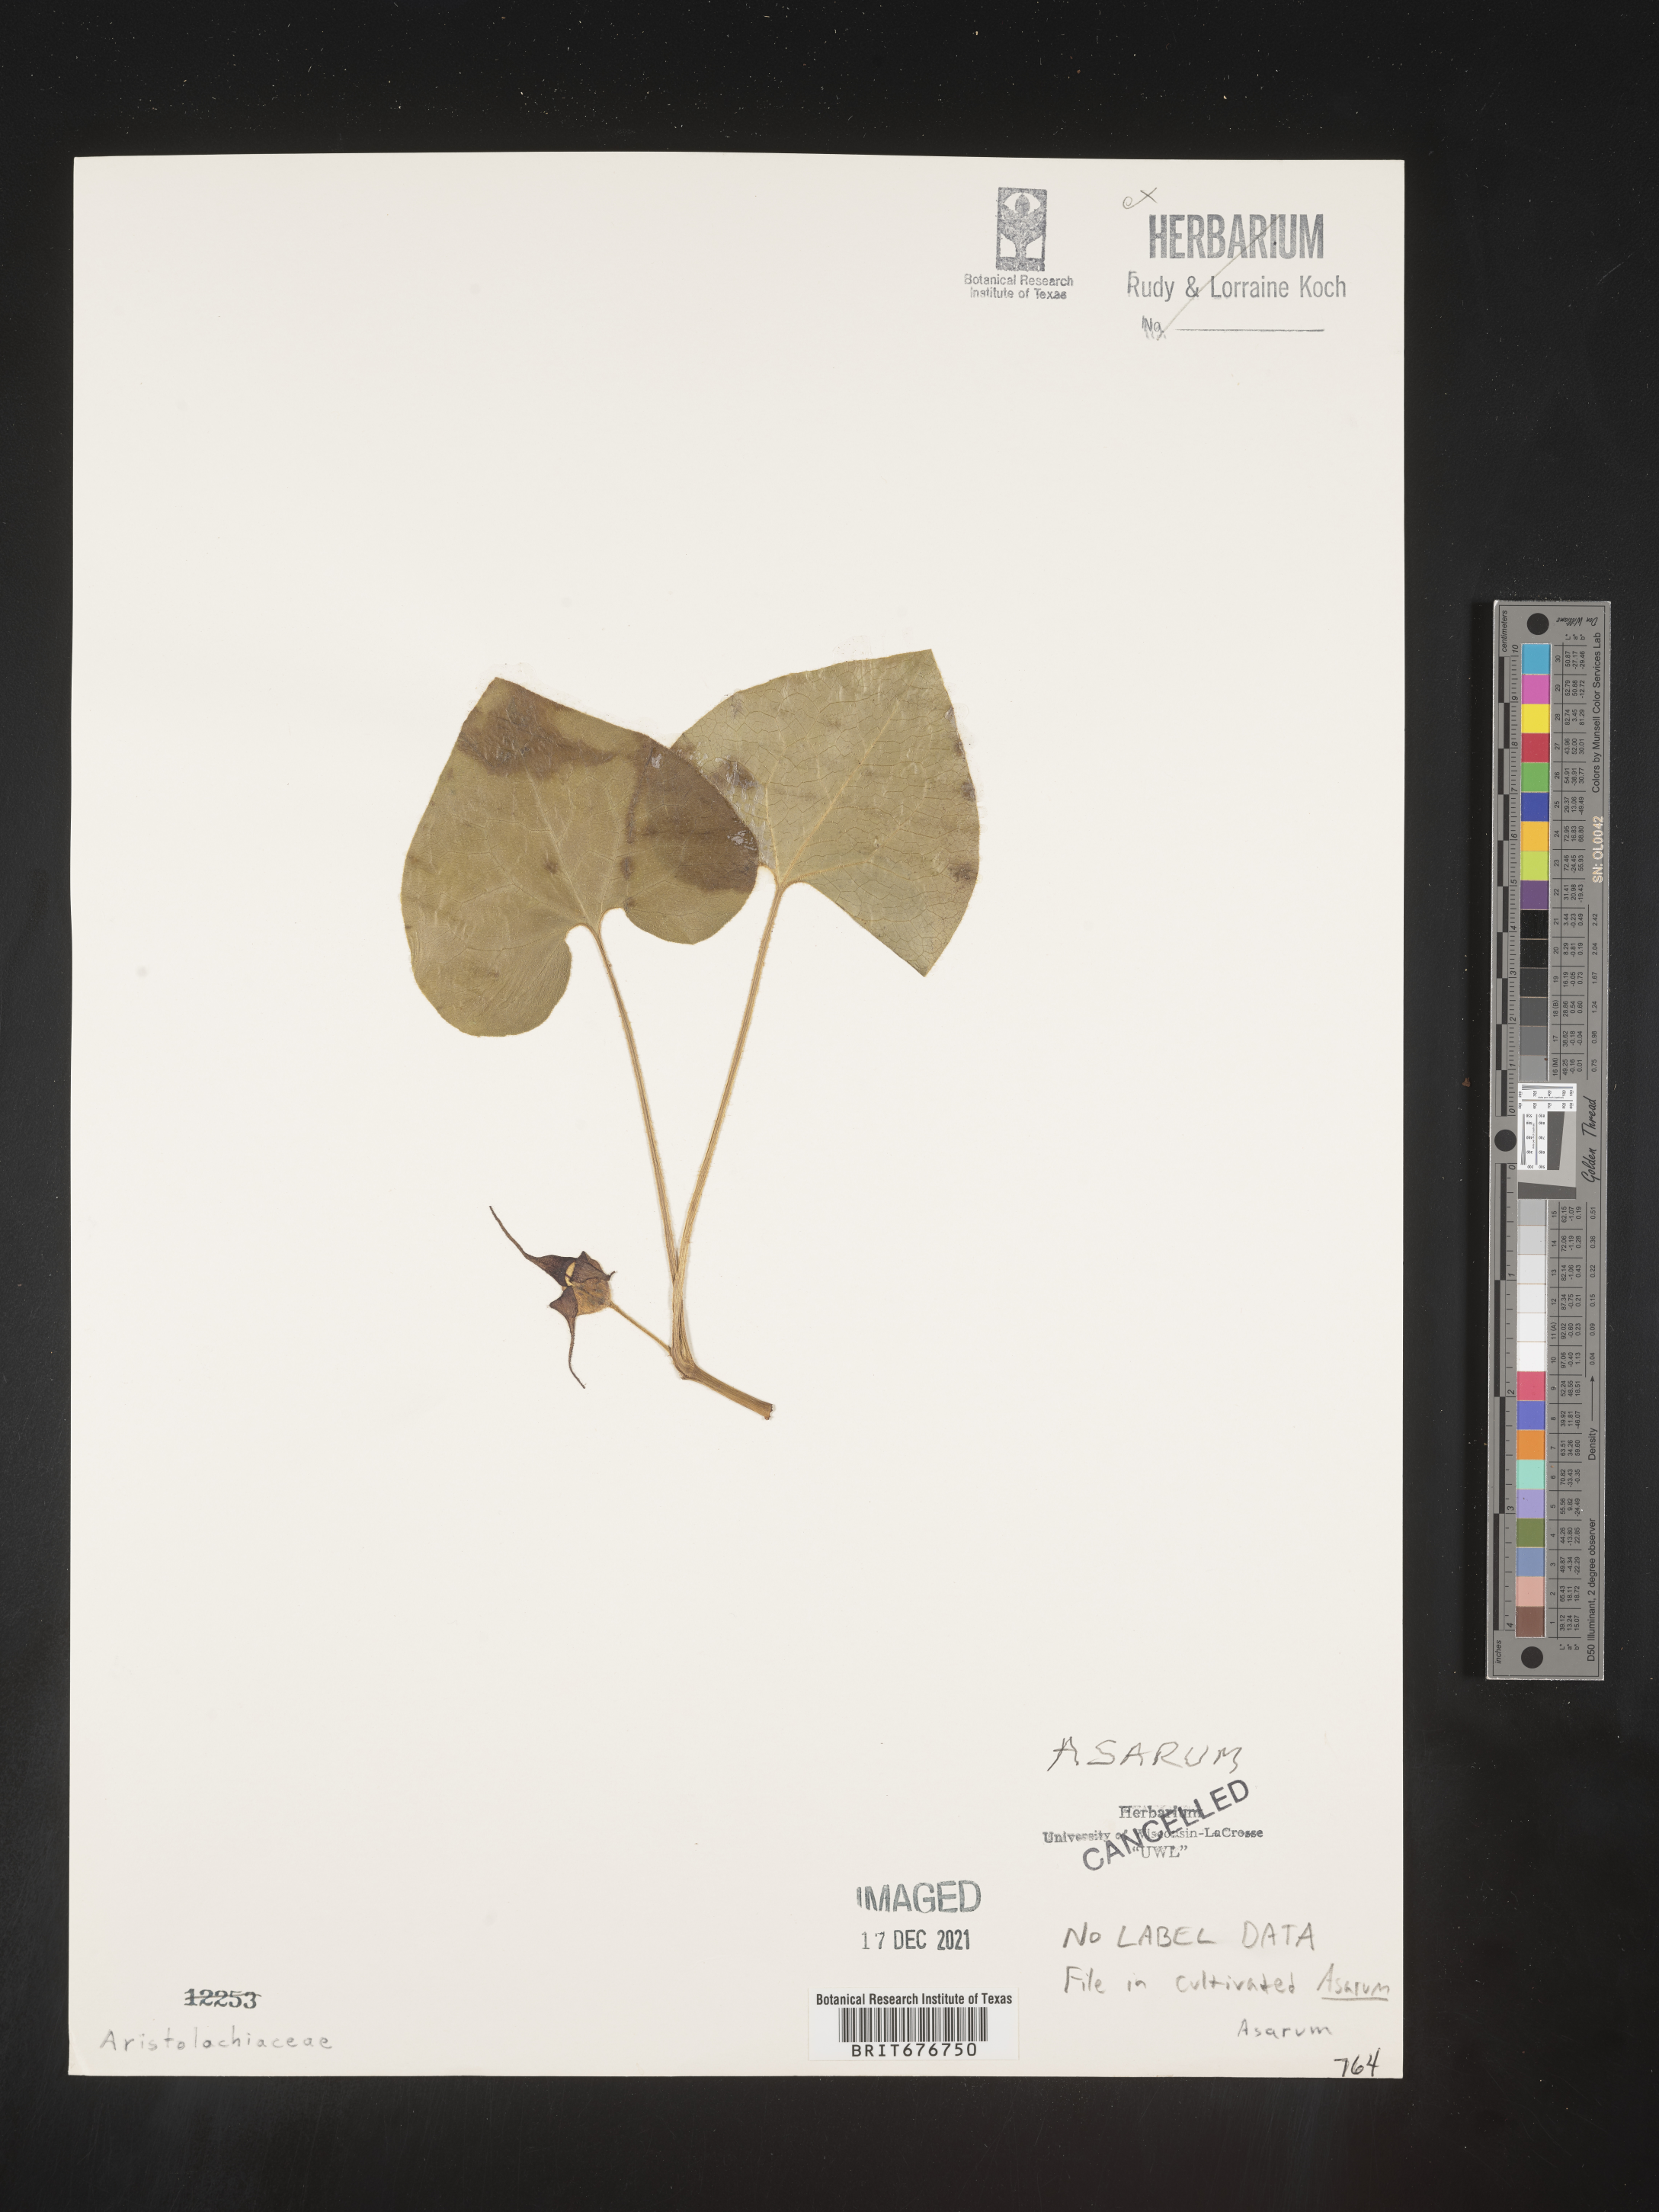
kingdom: Plantae
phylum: Tracheophyta
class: Magnoliopsida
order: Piperales
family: Aristolochiaceae
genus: Aristolochia
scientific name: Aristolochia
